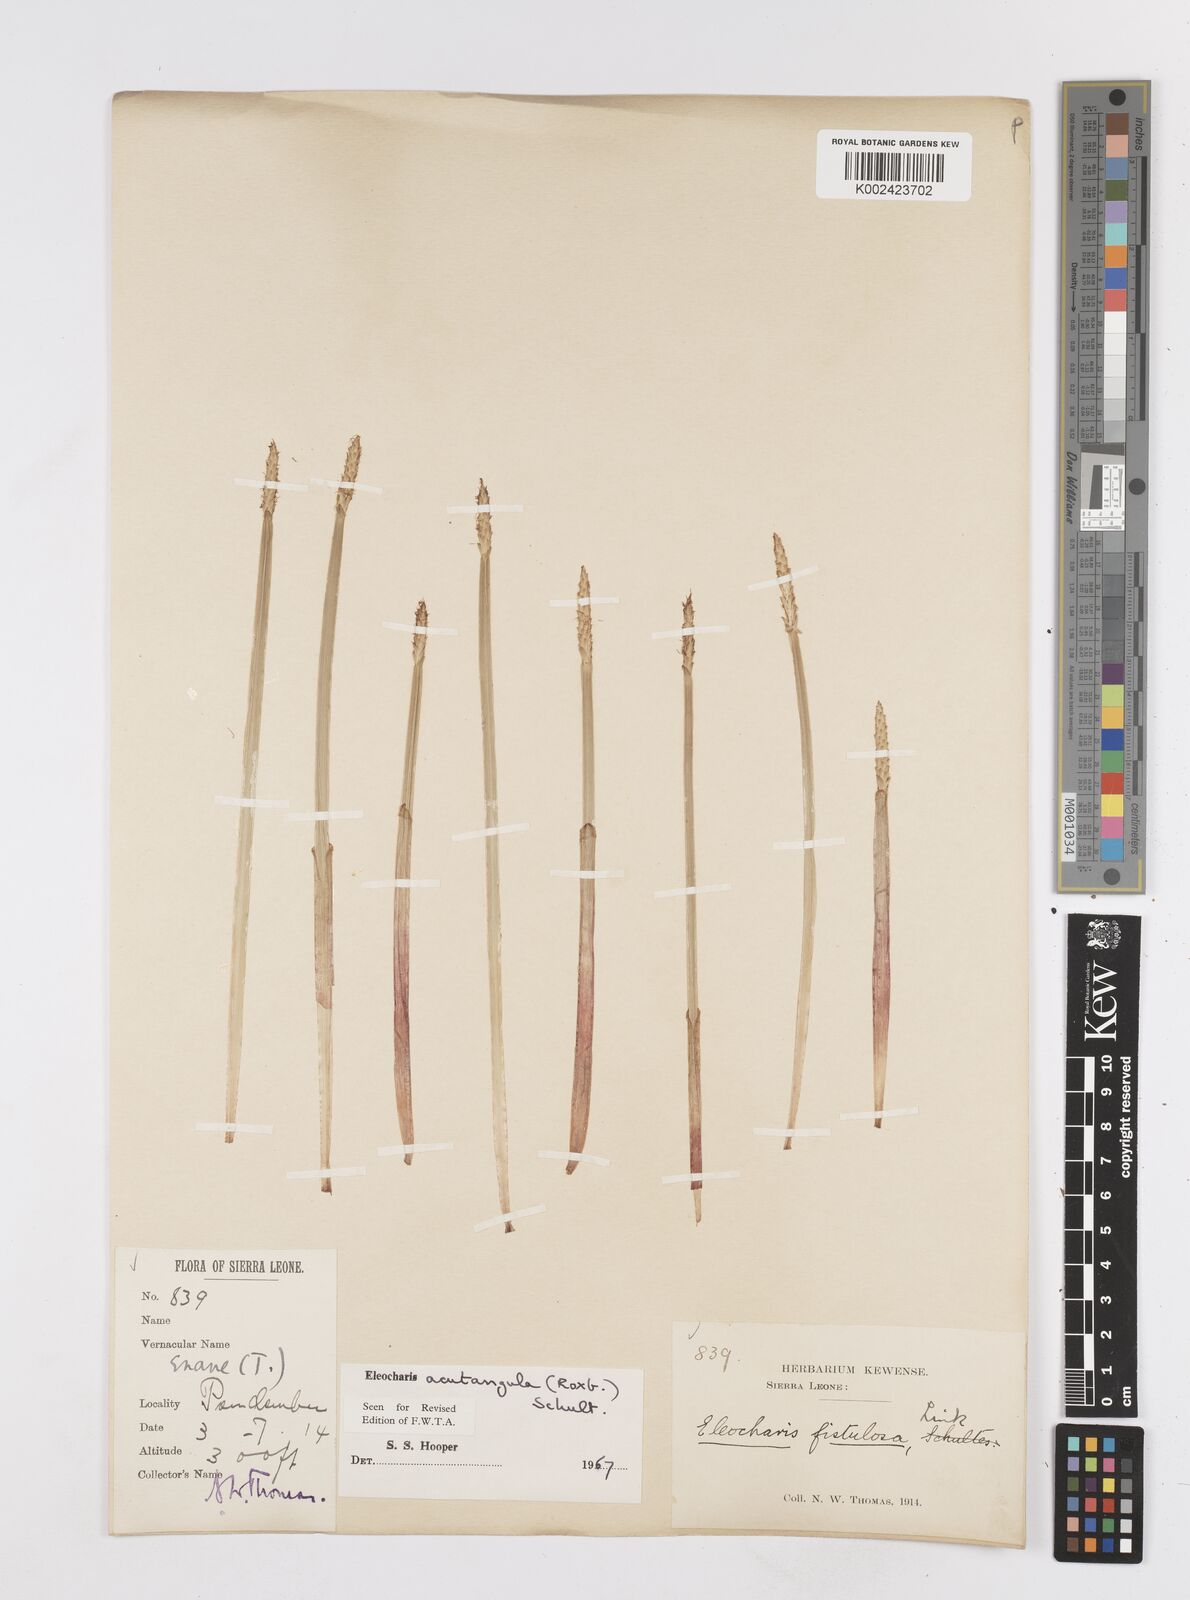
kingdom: Plantae
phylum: Tracheophyta
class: Liliopsida
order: Poales
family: Cyperaceae
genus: Eleocharis
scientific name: Eleocharis acutangula
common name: Acute spikerush
